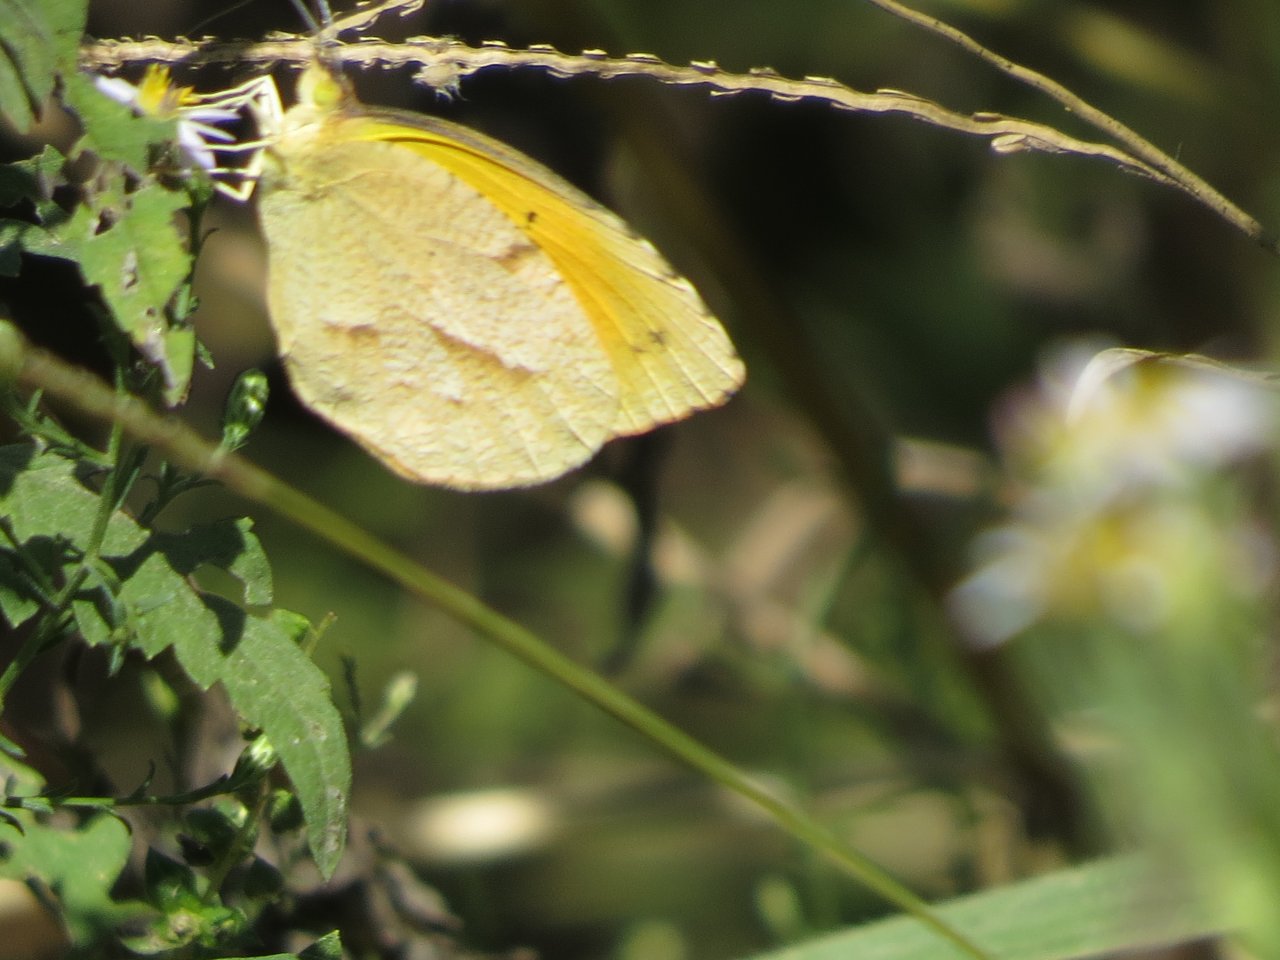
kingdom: Animalia
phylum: Arthropoda
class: Insecta
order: Lepidoptera
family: Pieridae
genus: Abaeis
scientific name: Abaeis nicippe
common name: Sleepy Orange
